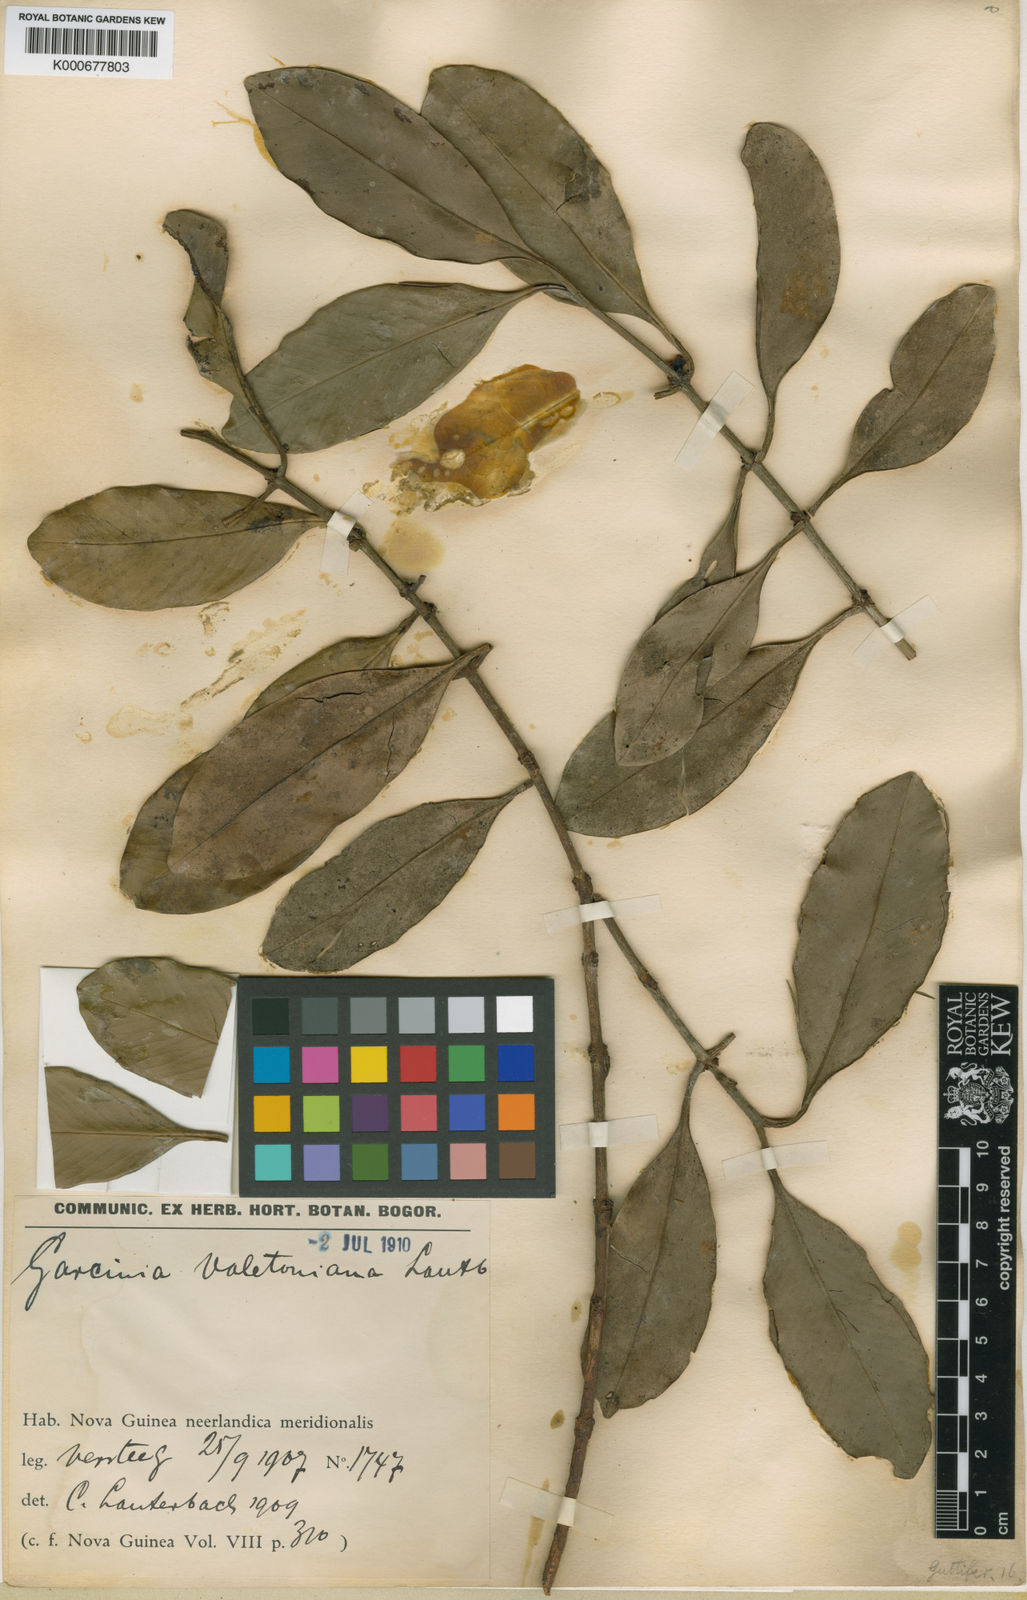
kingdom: Plantae
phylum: Tracheophyta
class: Magnoliopsida
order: Malpighiales
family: Clusiaceae
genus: Garcinia
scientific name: Garcinia valetoniana
